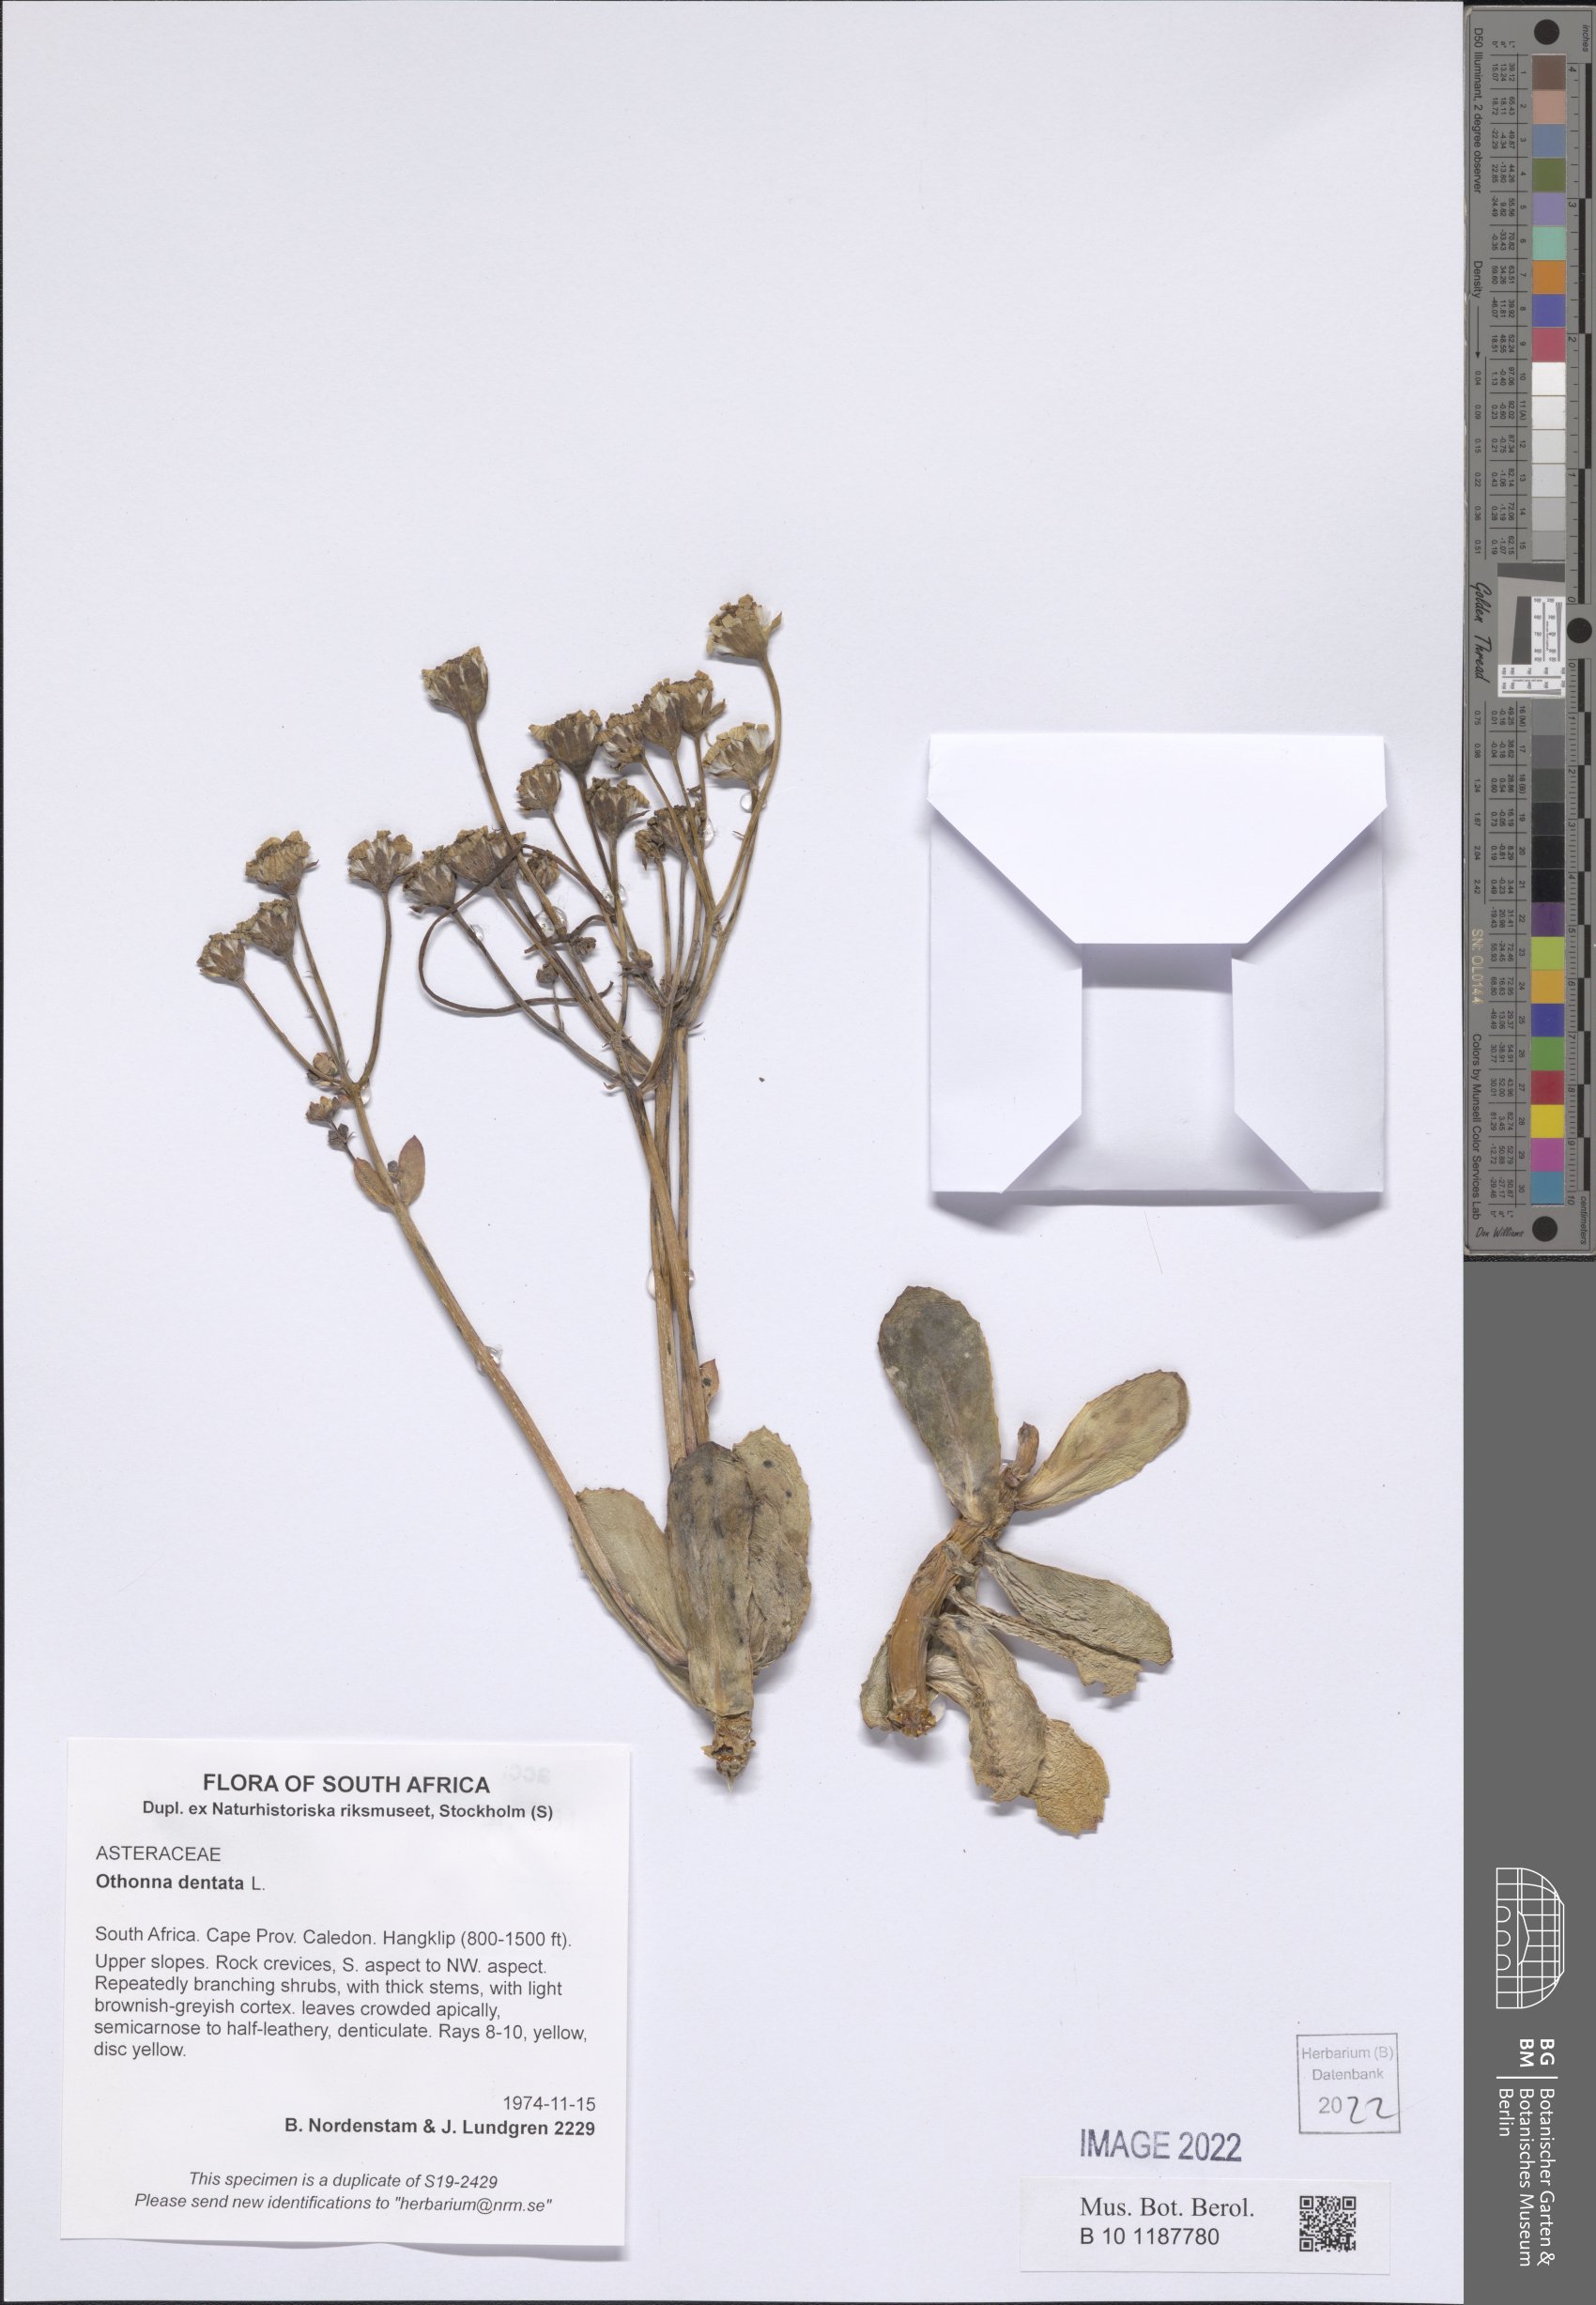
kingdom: Plantae
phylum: Tracheophyta
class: Magnoliopsida
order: Asterales
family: Asteraceae
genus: Othonna
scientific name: Othonna dentata
